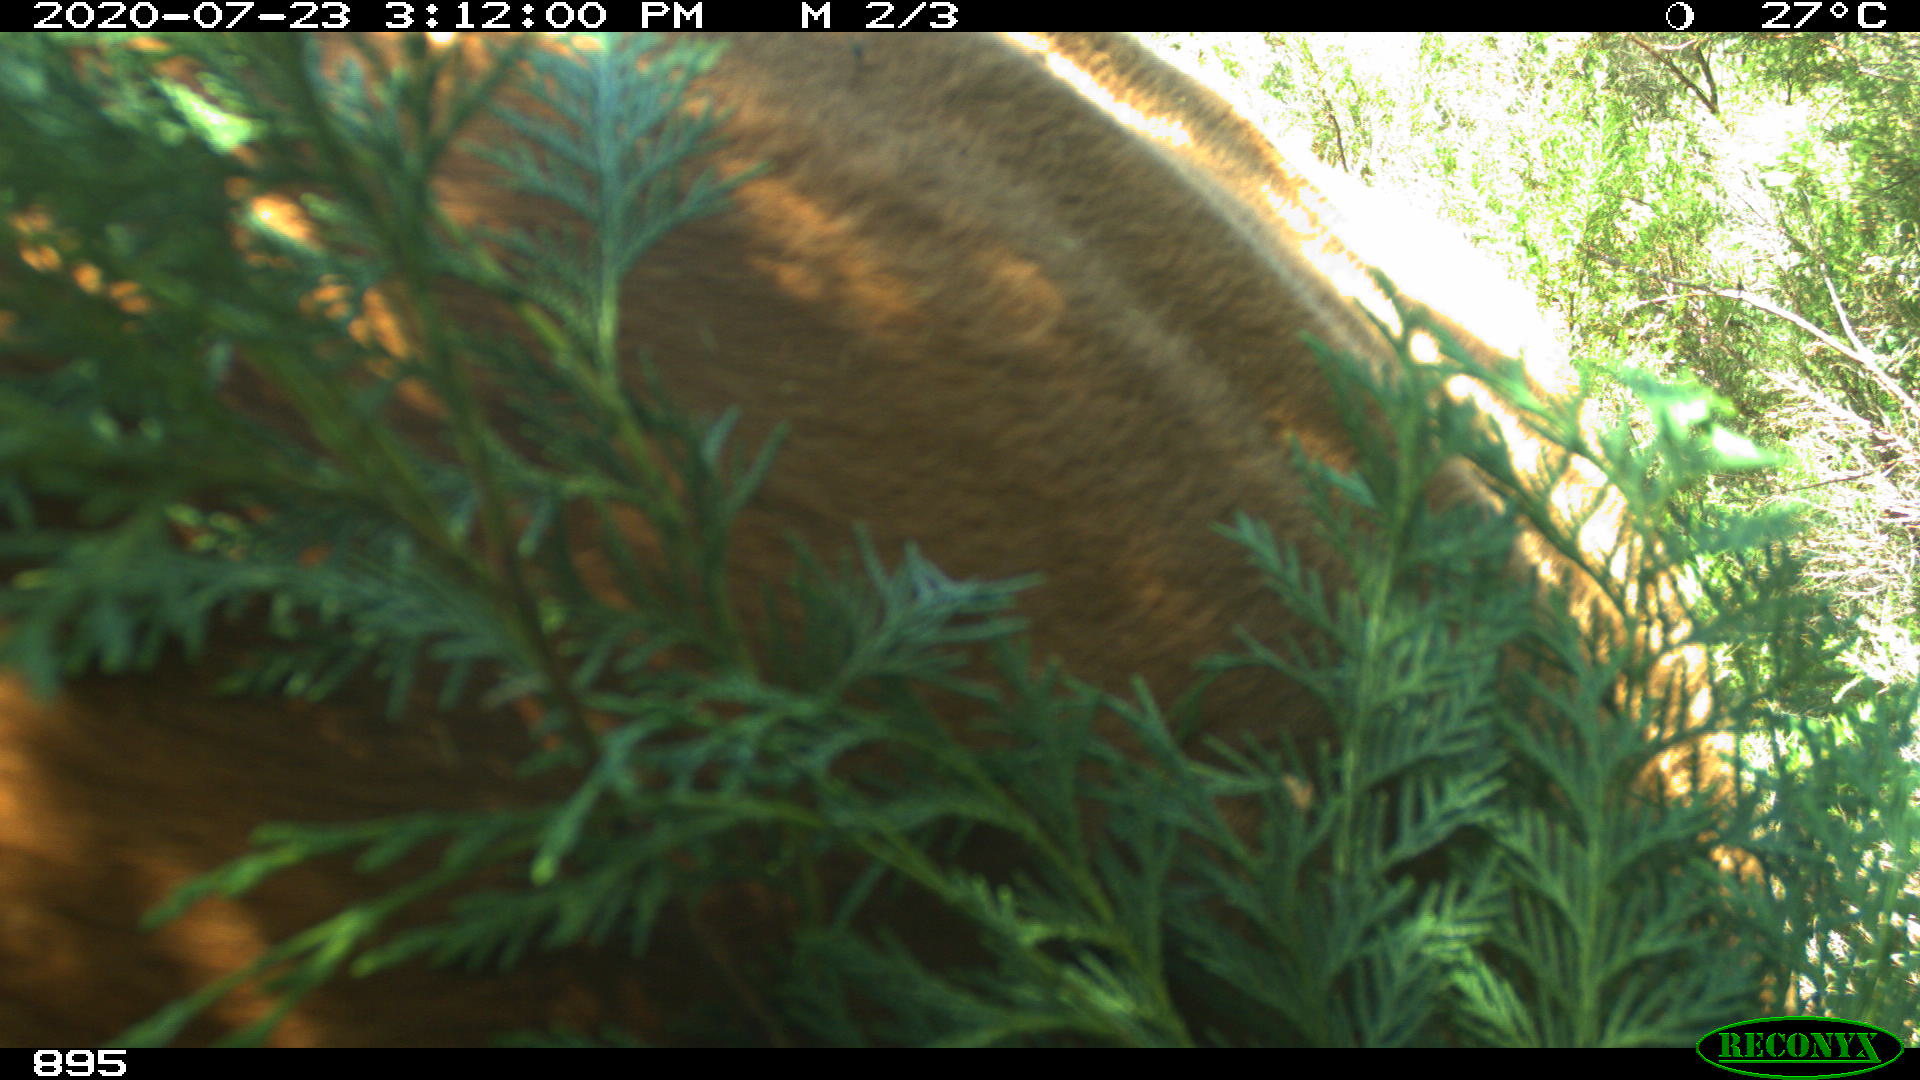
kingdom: Animalia
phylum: Chordata
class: Mammalia
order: Artiodactyla
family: Bovidae
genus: Bos
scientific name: Bos taurus
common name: Domesticated cattle
